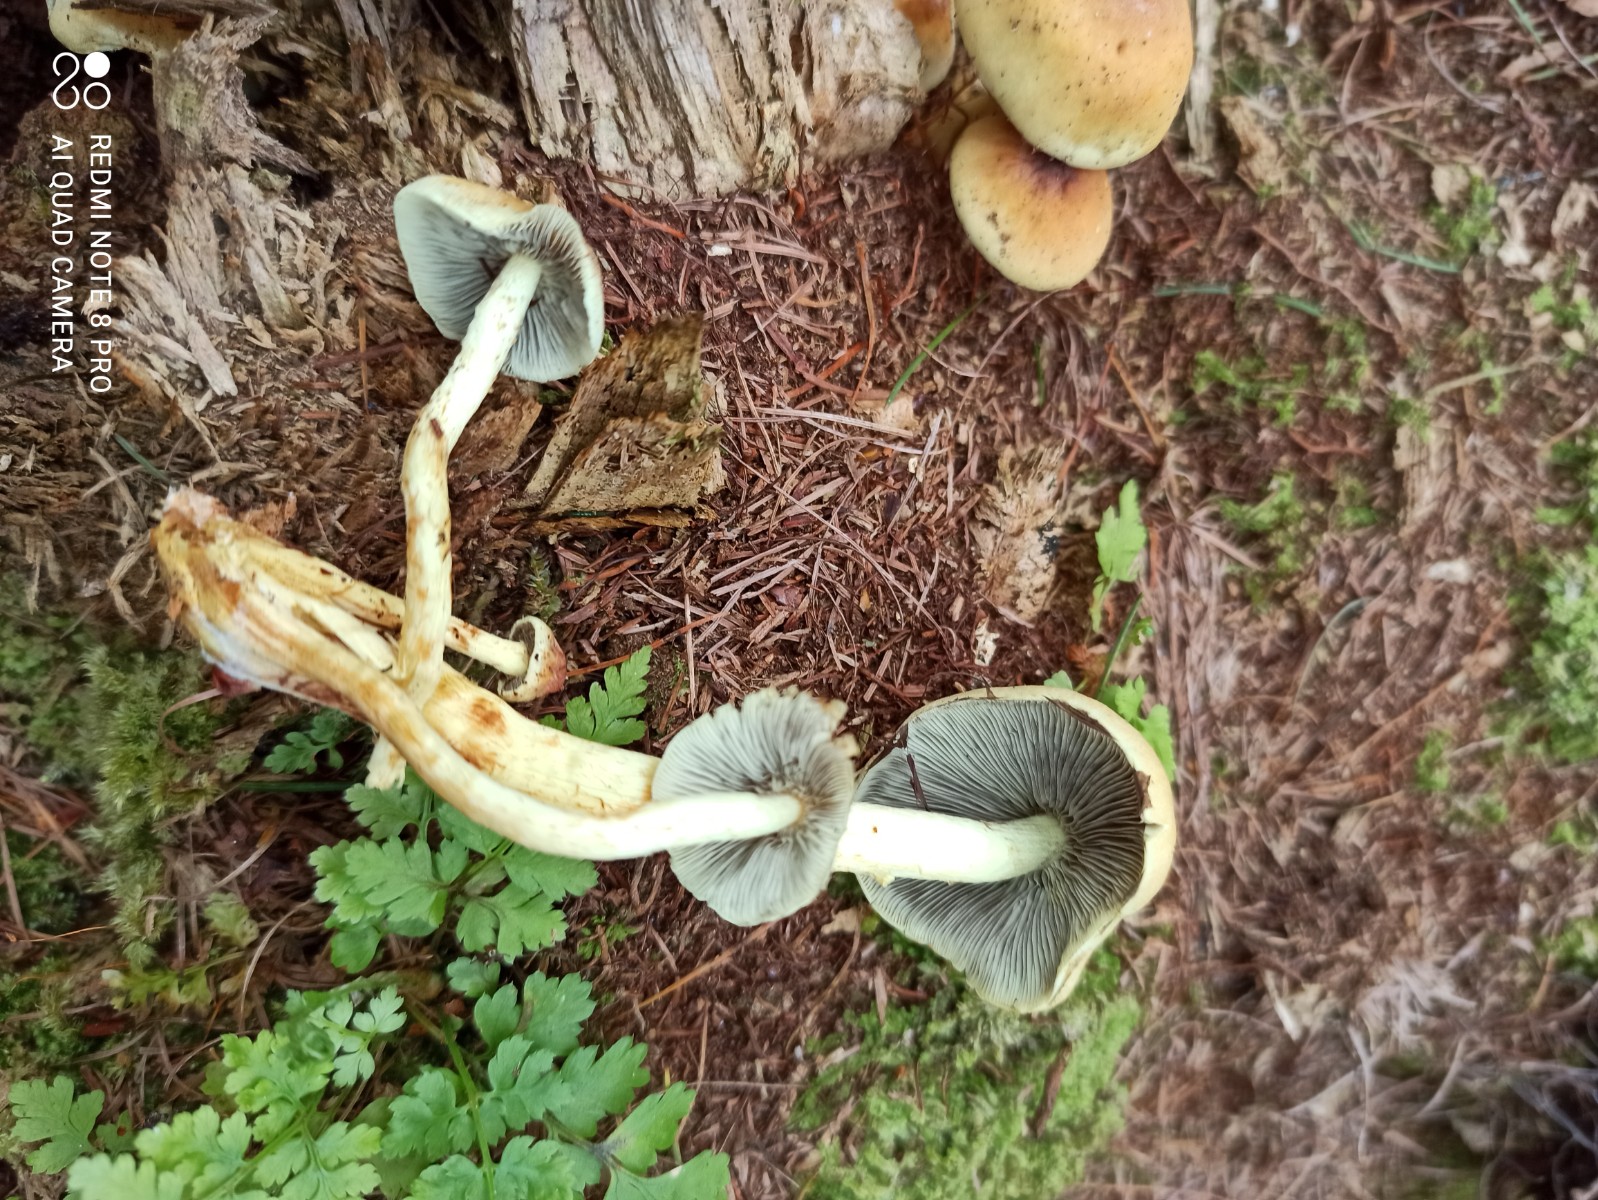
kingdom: Fungi
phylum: Basidiomycota
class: Agaricomycetes
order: Agaricales
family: Strophariaceae
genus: Hypholoma
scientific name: Hypholoma fasciculare
